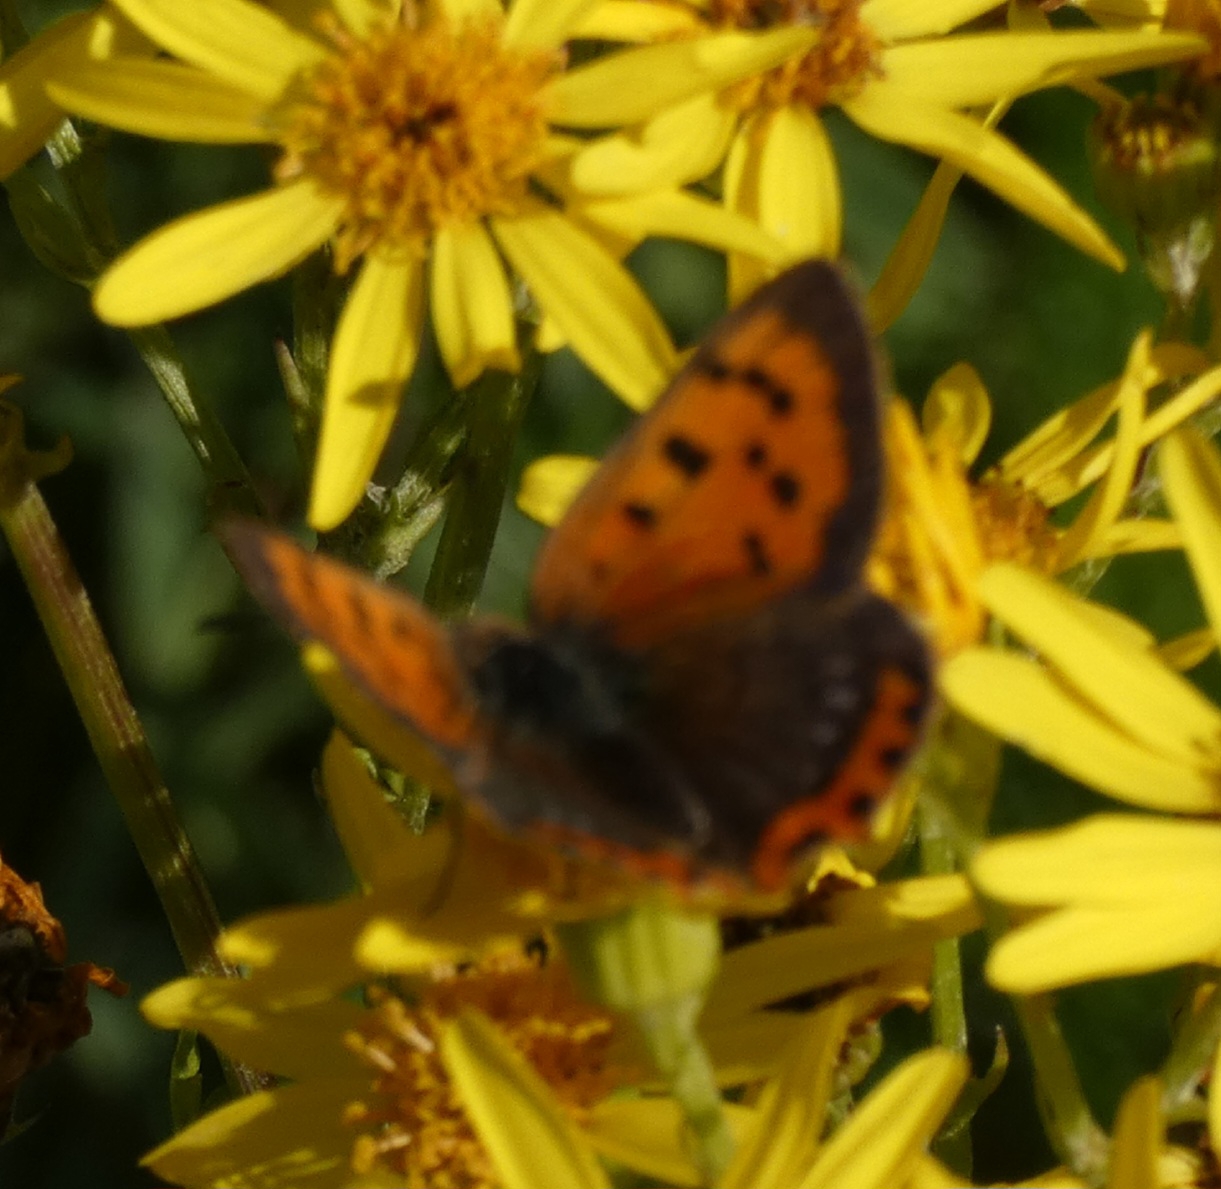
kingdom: Animalia
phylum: Arthropoda
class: Insecta
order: Lepidoptera
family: Lycaenidae
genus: Lycaena
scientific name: Lycaena phlaeas
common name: Lille ildfugl
